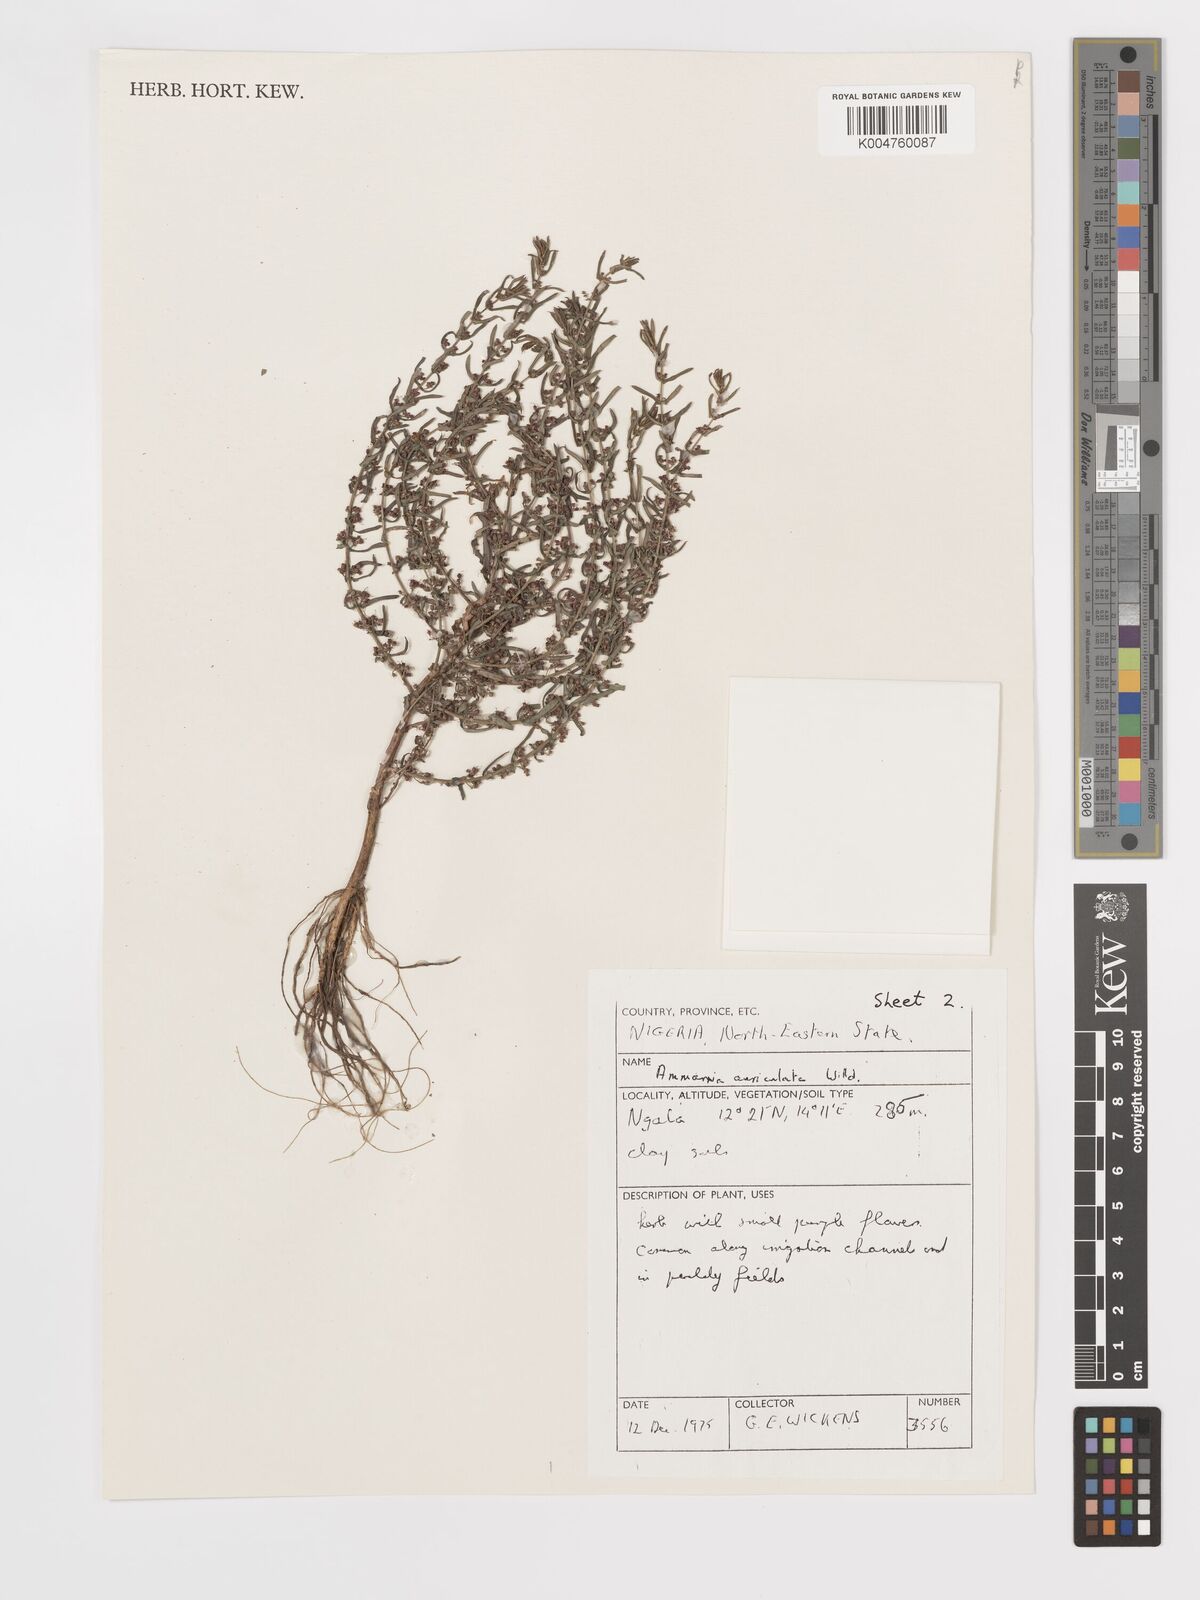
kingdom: Plantae
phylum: Tracheophyta
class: Magnoliopsida
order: Myrtales
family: Lythraceae
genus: Ammannia
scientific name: Ammannia auriculata
